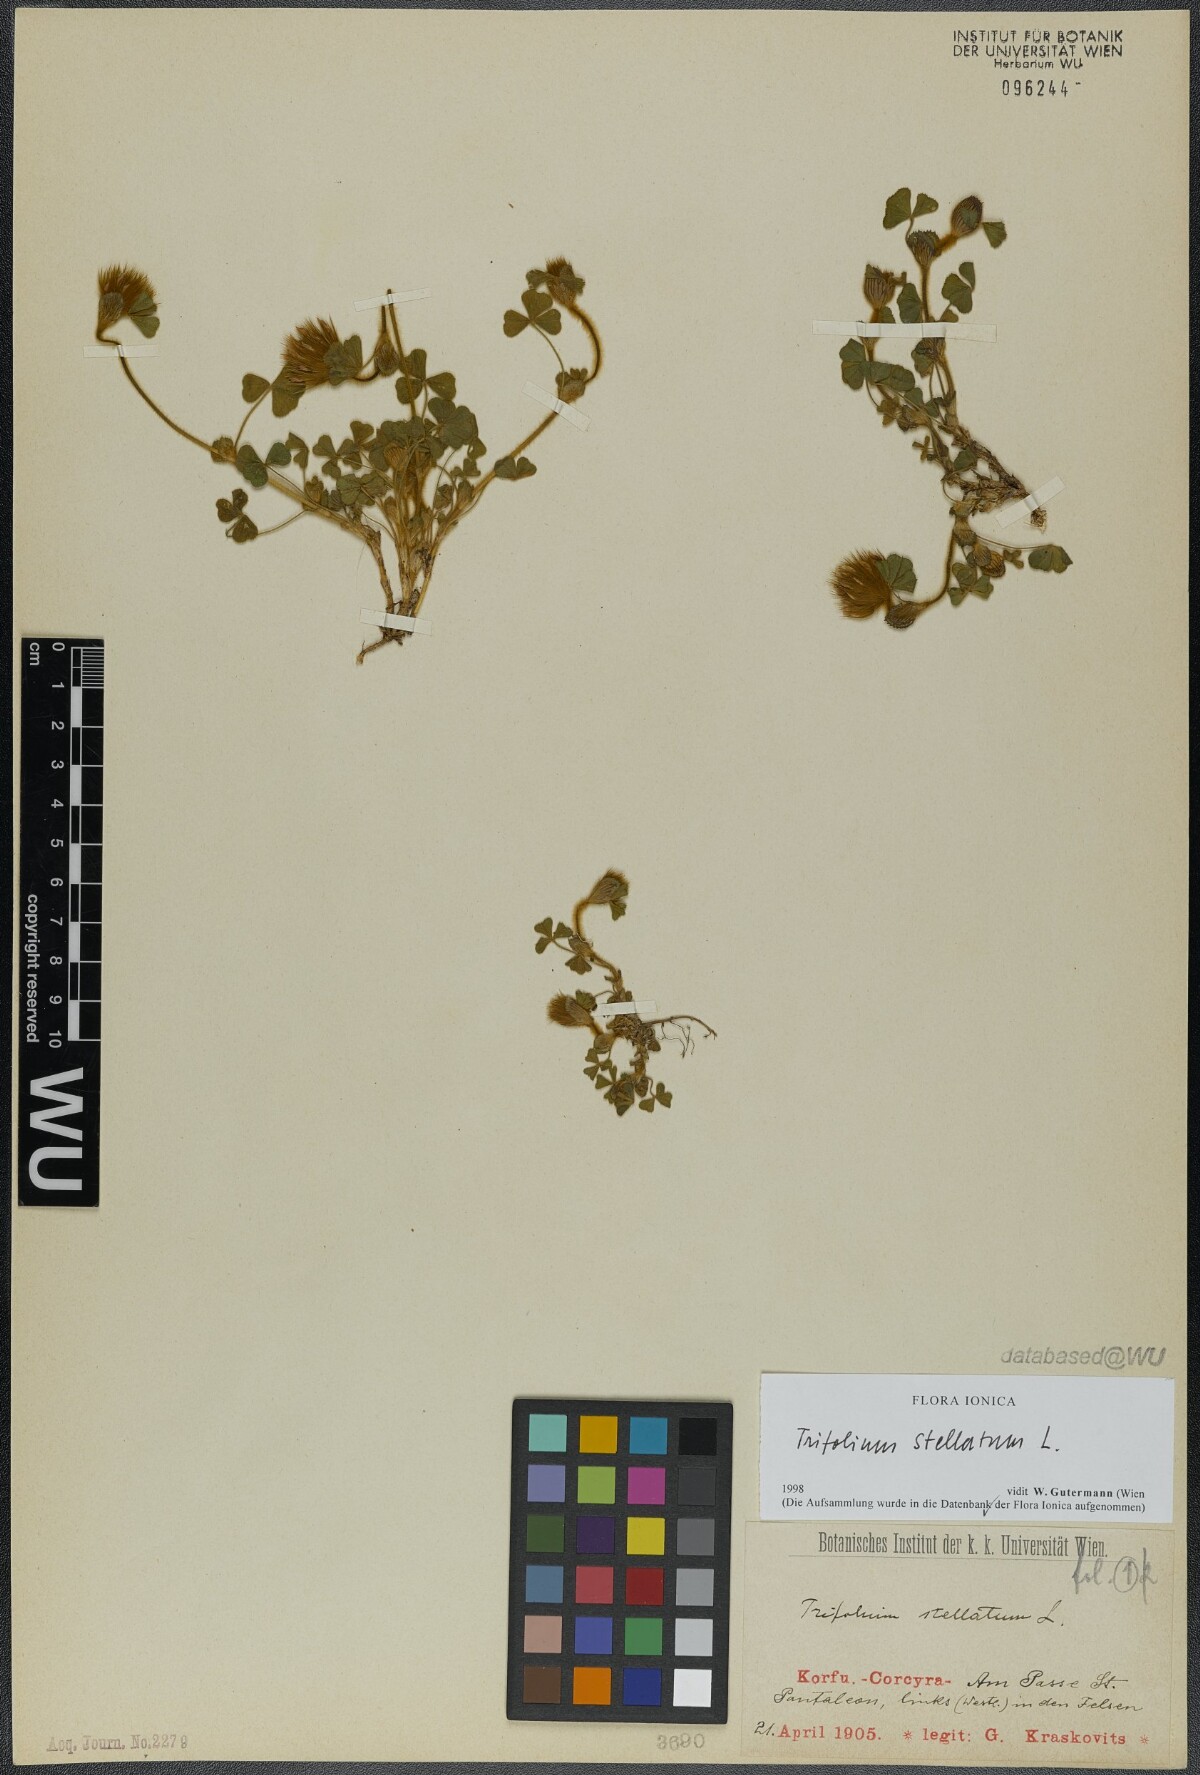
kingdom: Plantae
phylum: Tracheophyta
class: Magnoliopsida
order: Fabales
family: Fabaceae
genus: Trifolium
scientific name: Trifolium stellatum
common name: Starry clover
